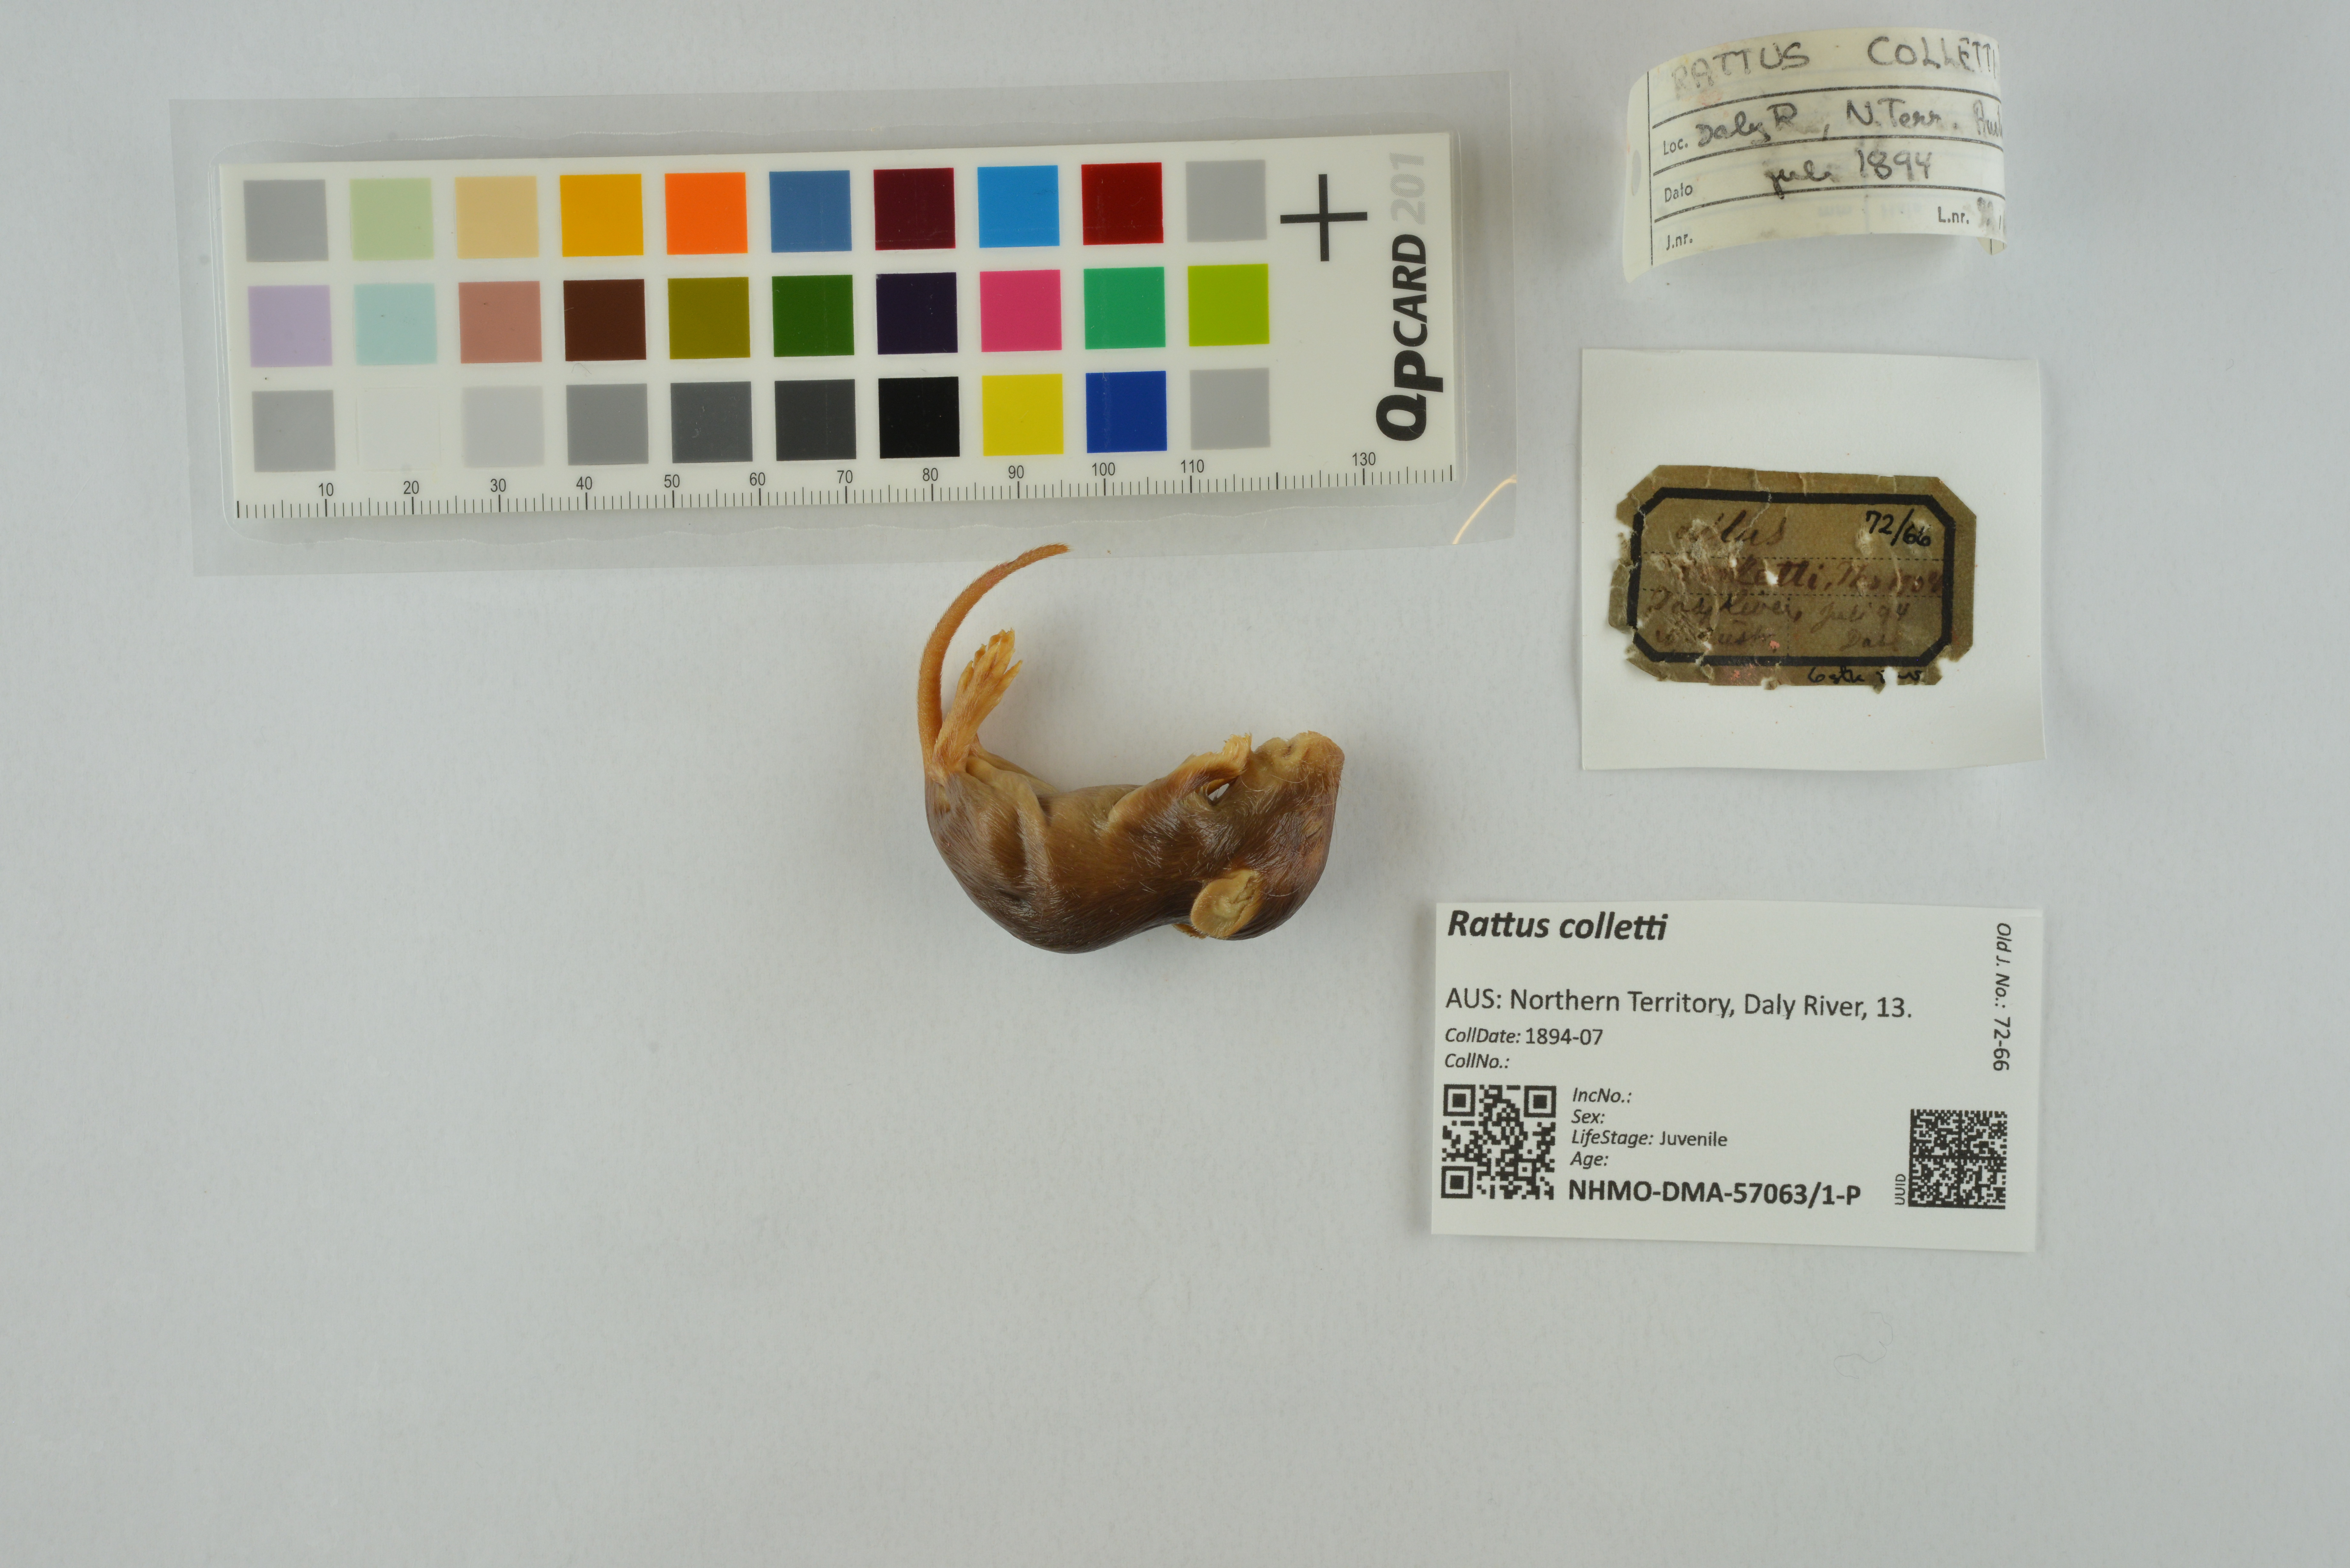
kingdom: Animalia
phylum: Chordata
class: Mammalia
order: Rodentia
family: Muridae
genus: Rattus
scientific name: Rattus colletti
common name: Australian dusky rat
